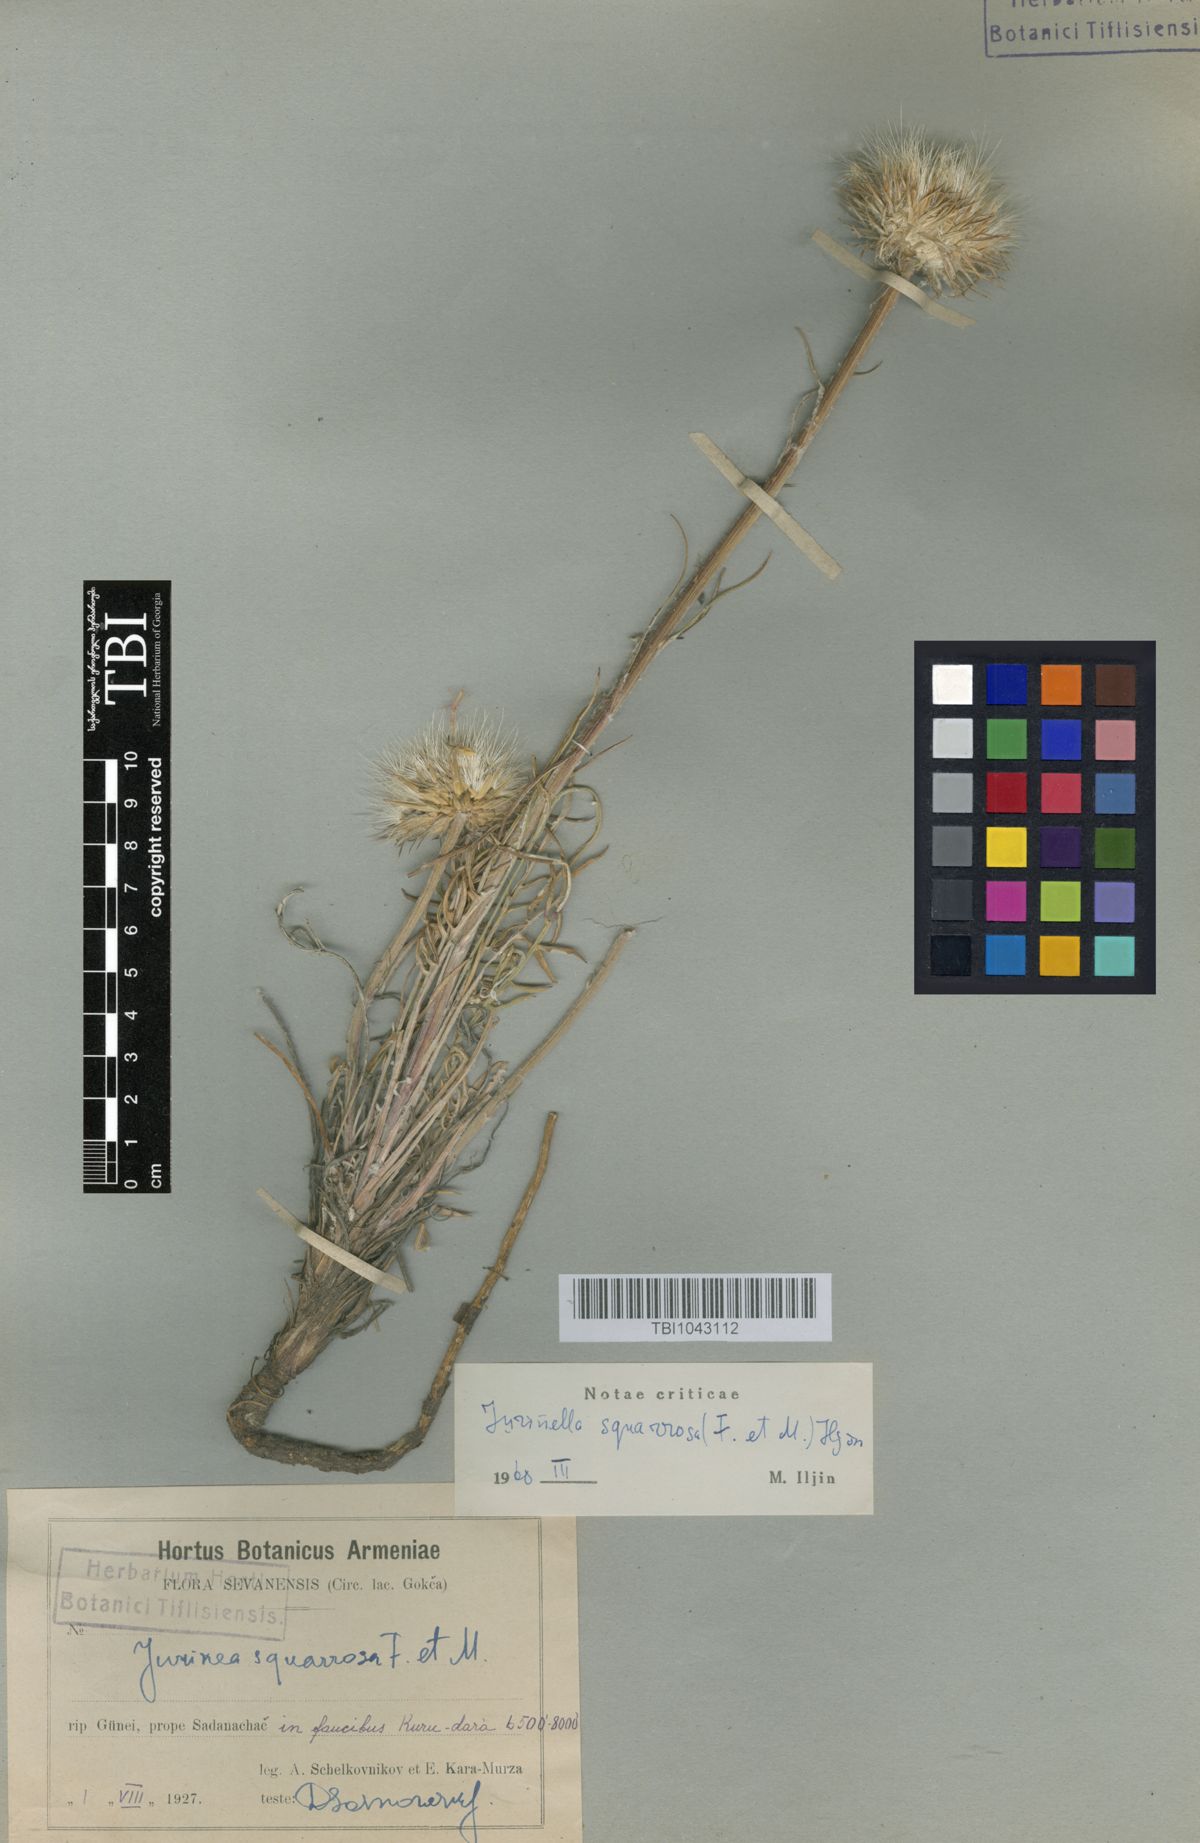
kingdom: Plantae
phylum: Tracheophyta
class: Magnoliopsida
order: Asterales
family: Asteraceae
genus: Jurinea
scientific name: Jurinea squarrosa
